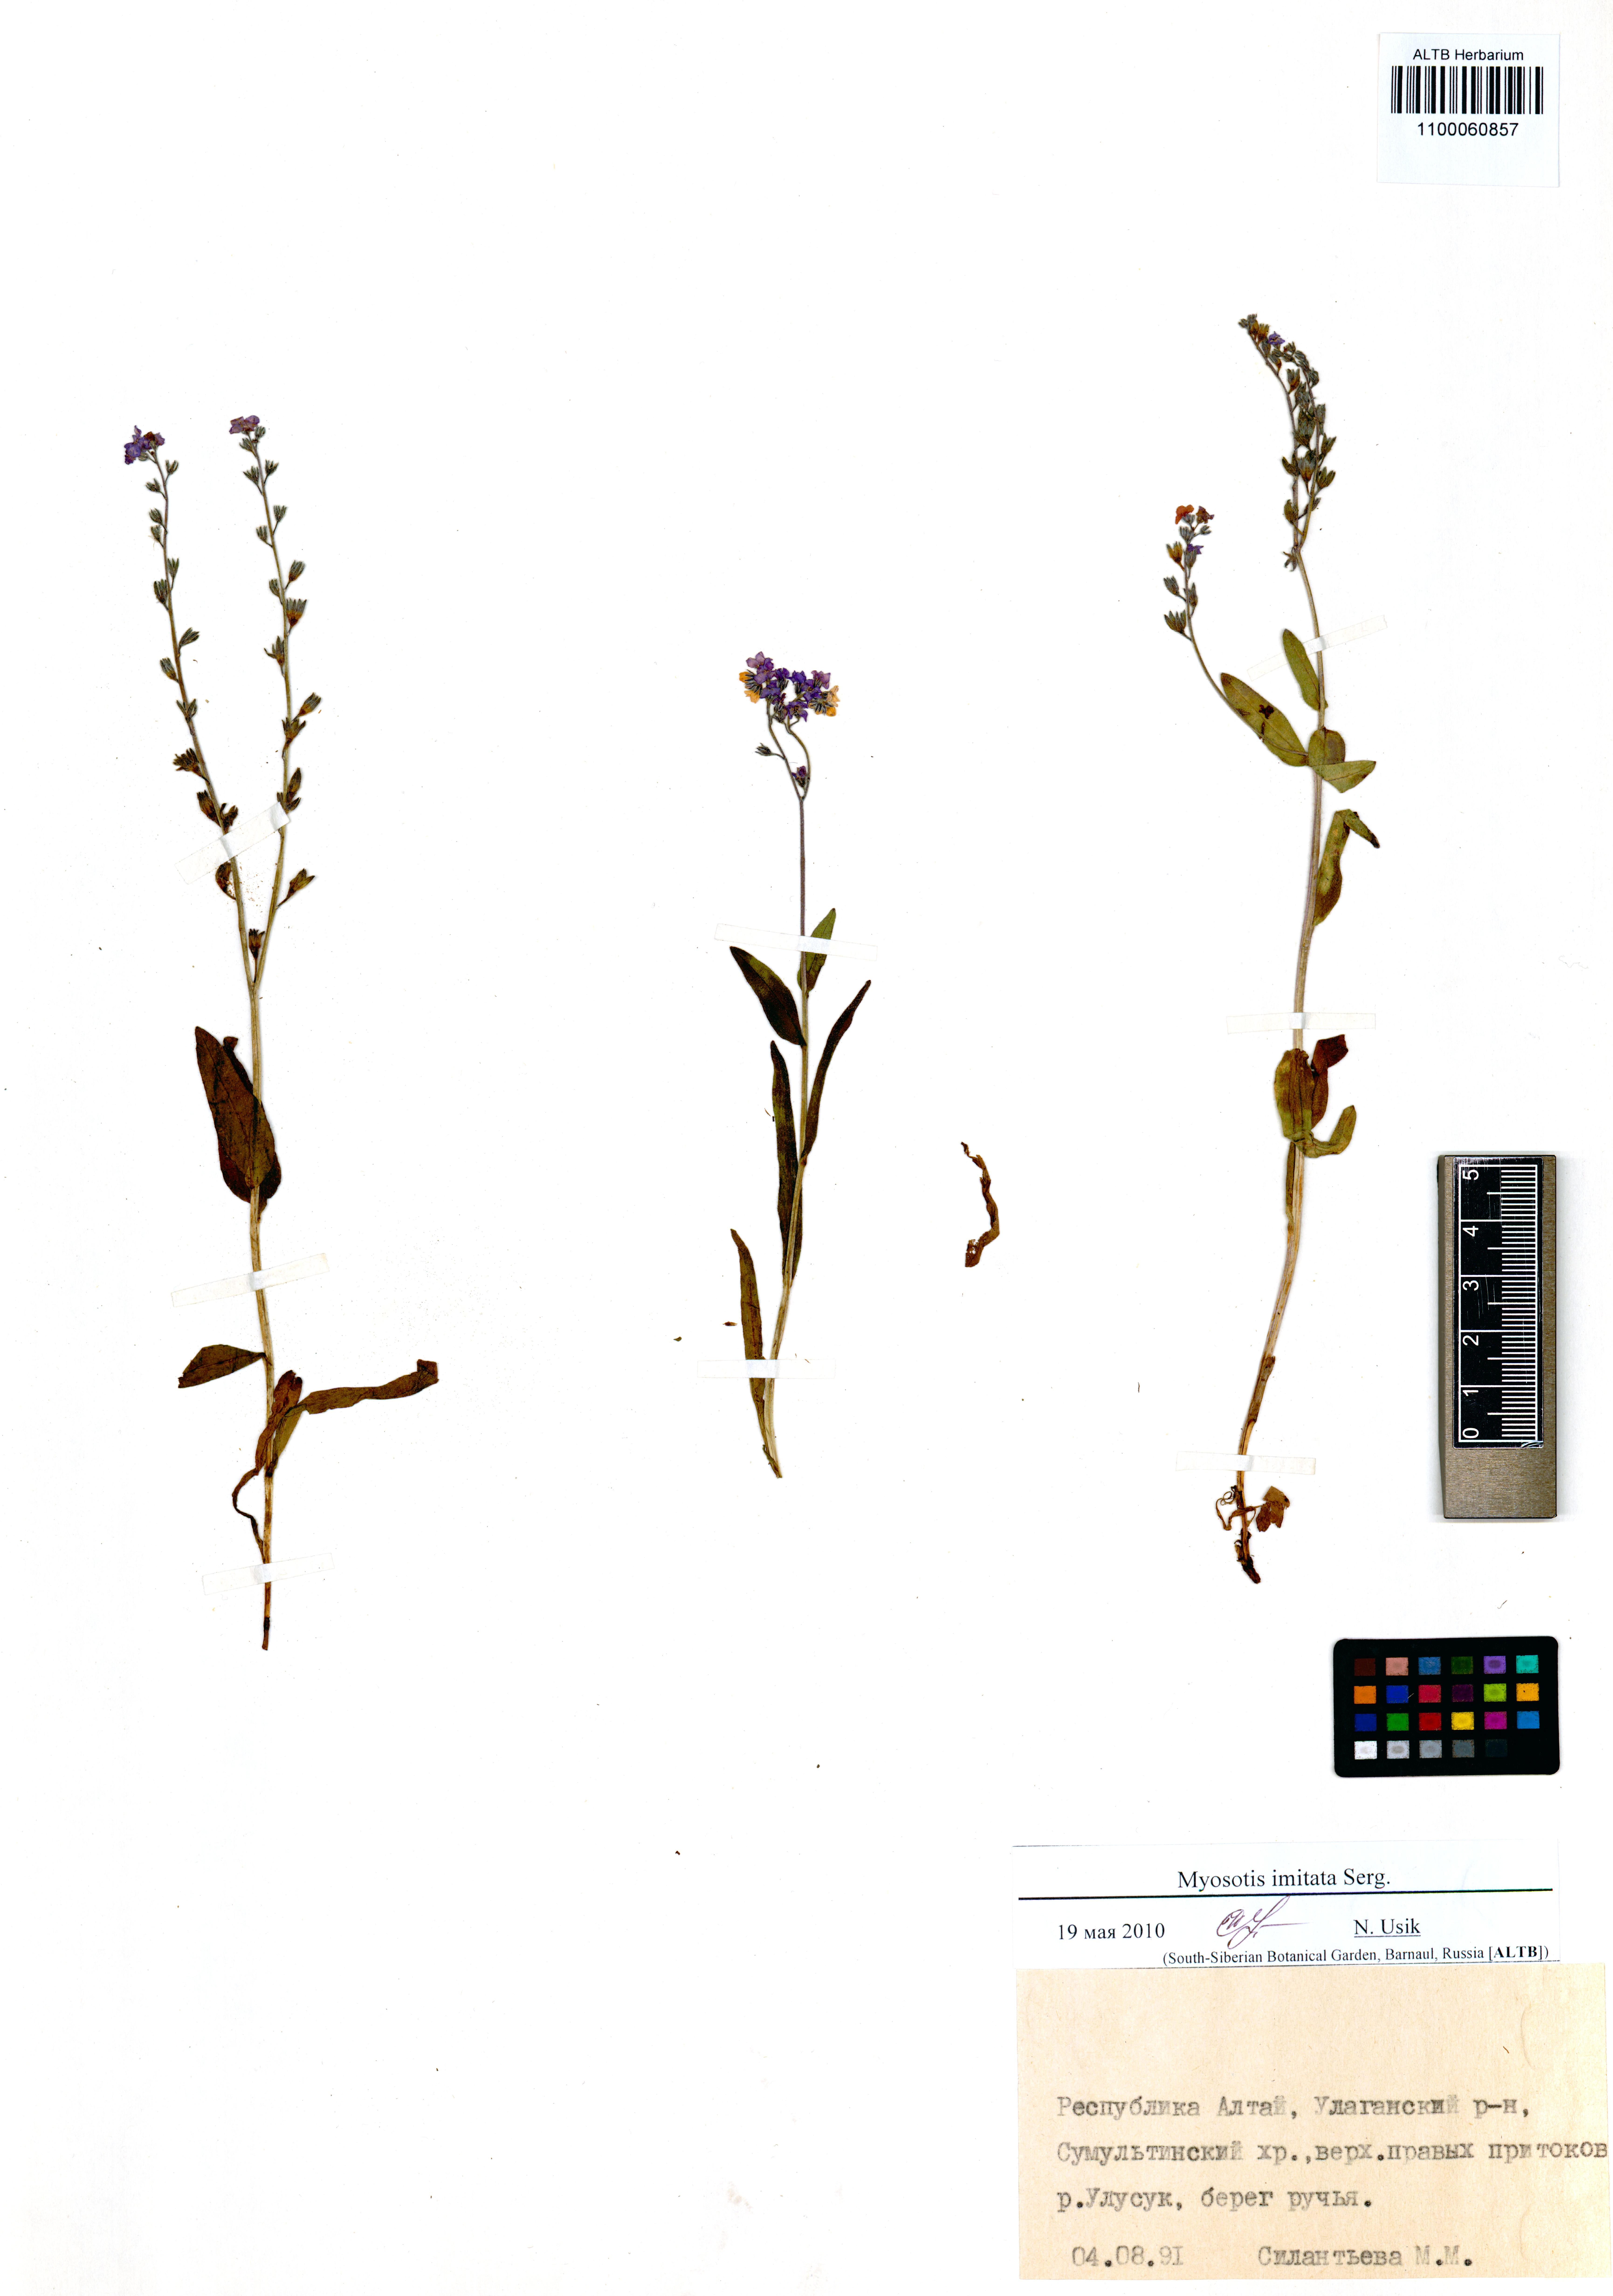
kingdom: Plantae
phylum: Tracheophyta
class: Magnoliopsida
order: Boraginales
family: Boraginaceae
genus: Myosotis
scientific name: Myosotis imitata
